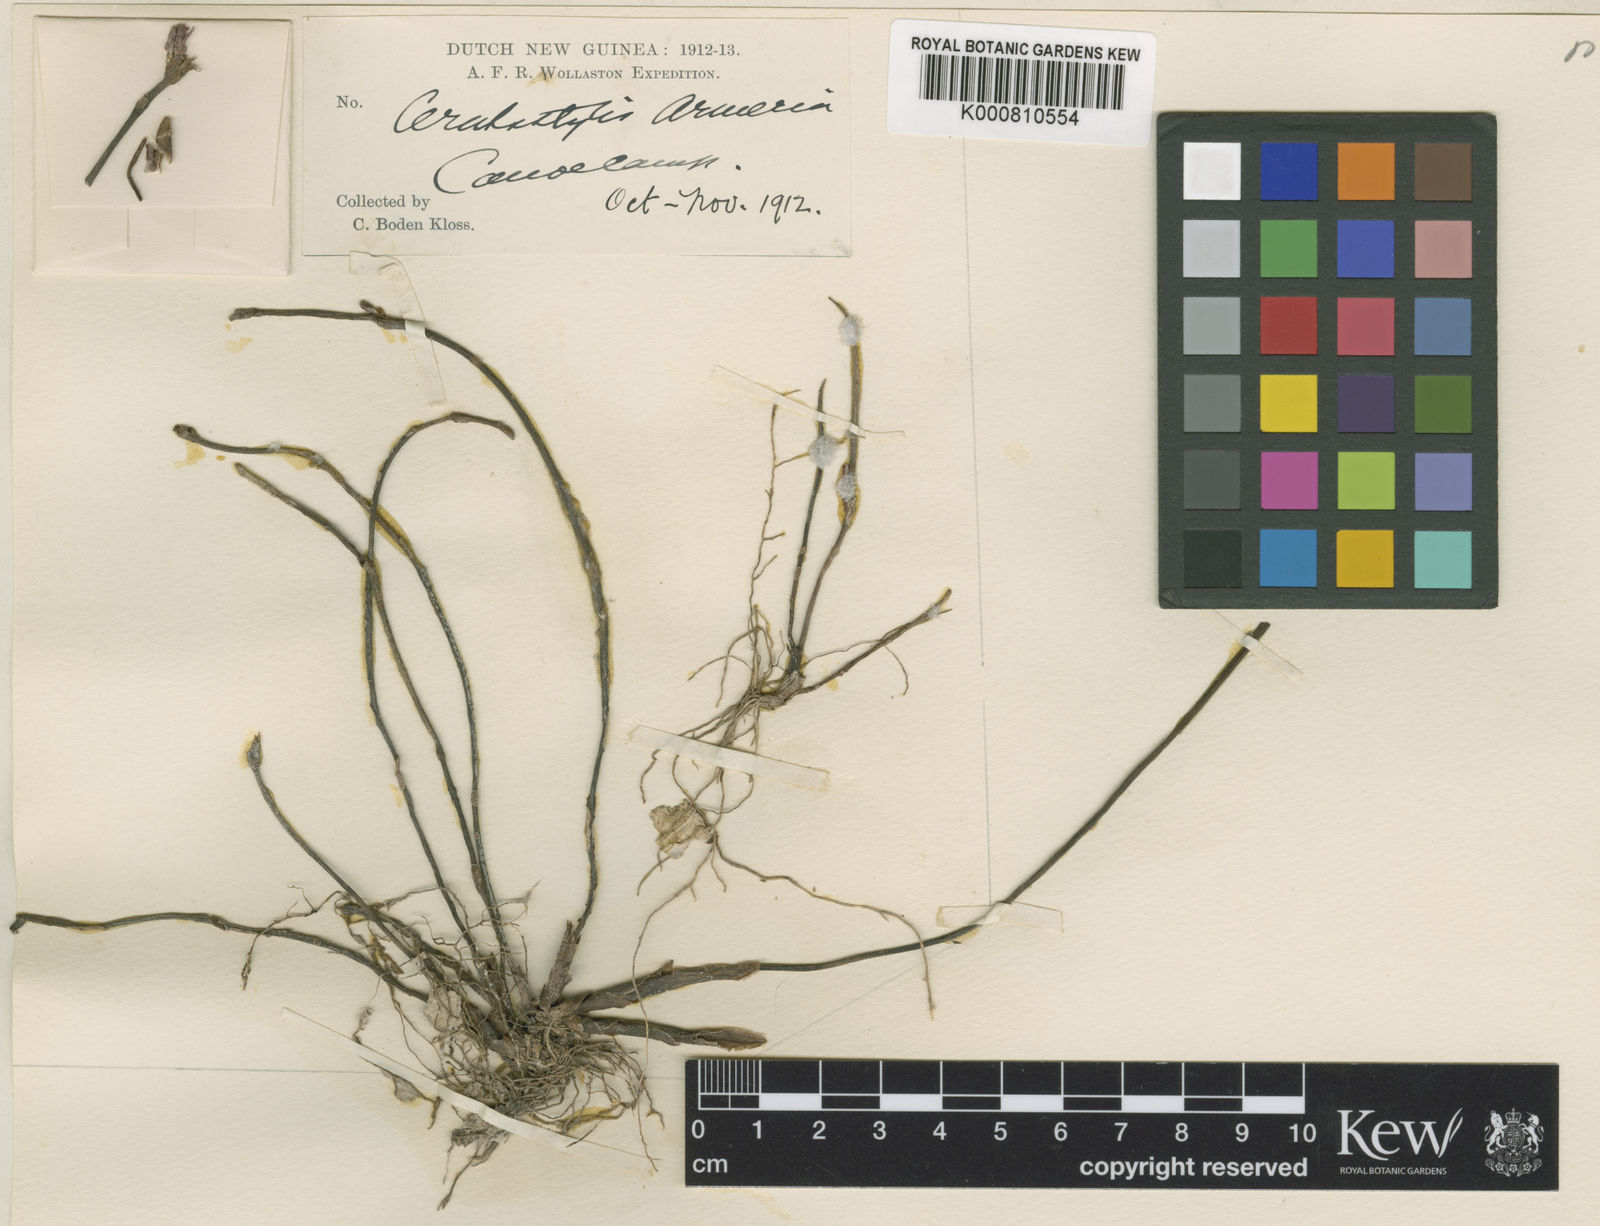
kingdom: Plantae
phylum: Tracheophyta
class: Liliopsida
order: Asparagales
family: Orchidaceae
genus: Ceratostylis
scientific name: Ceratostylis armeria
